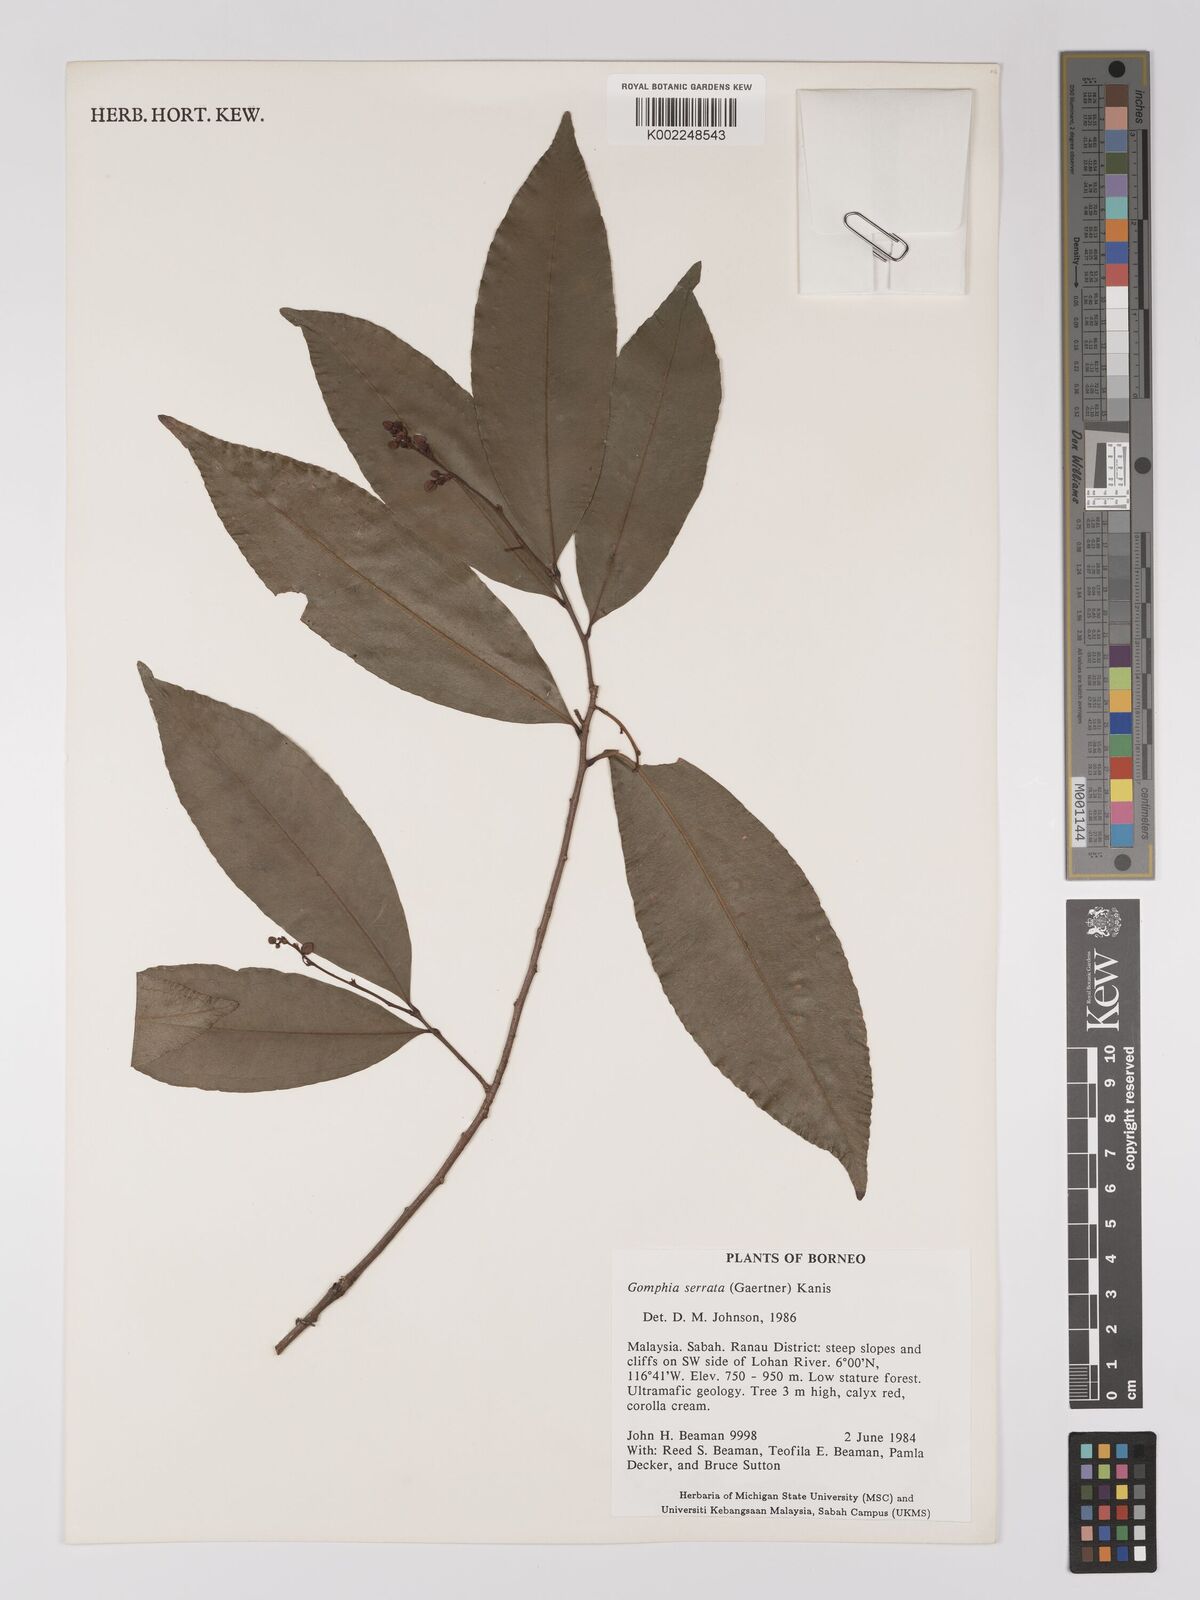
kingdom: Plantae
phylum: Tracheophyta
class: Magnoliopsida
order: Malpighiales
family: Ochnaceae
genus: Gomphia
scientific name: Gomphia serrata
